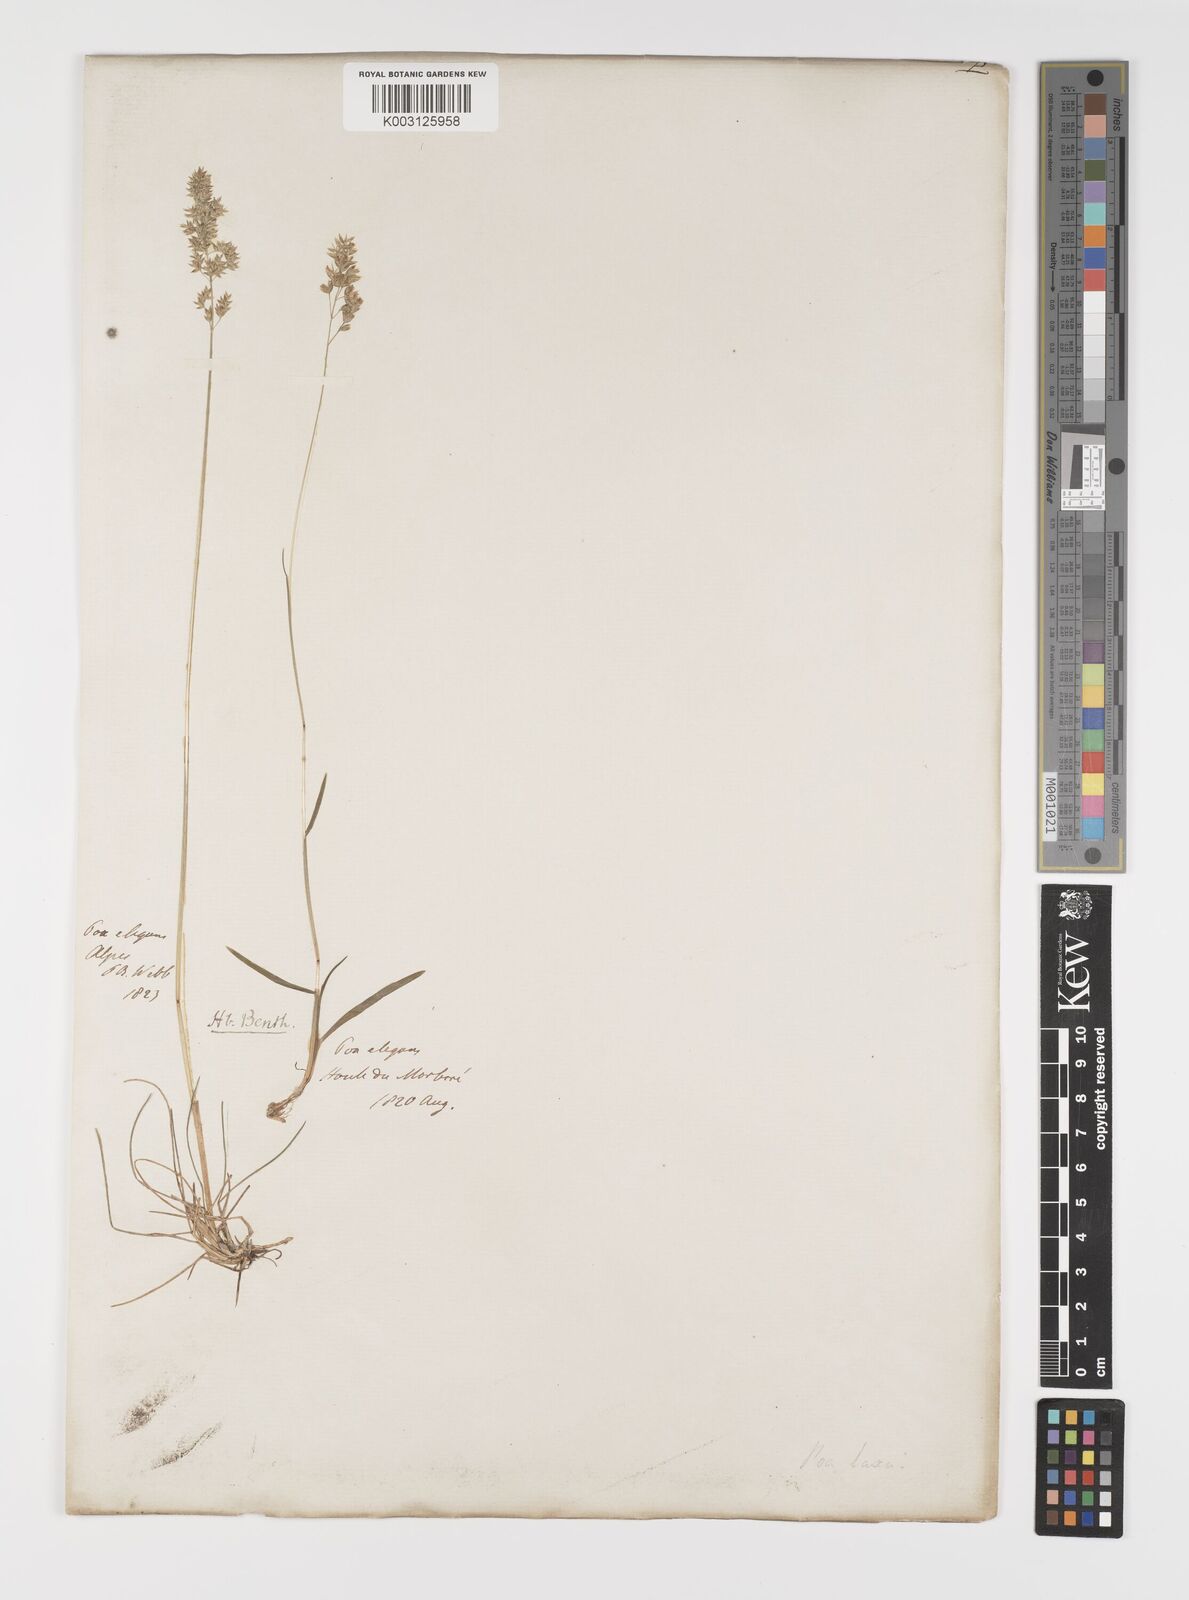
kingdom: Plantae
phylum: Tracheophyta
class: Liliopsida
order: Poales
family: Poaceae
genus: Poa
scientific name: Poa laxa
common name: Lax bluegrass
